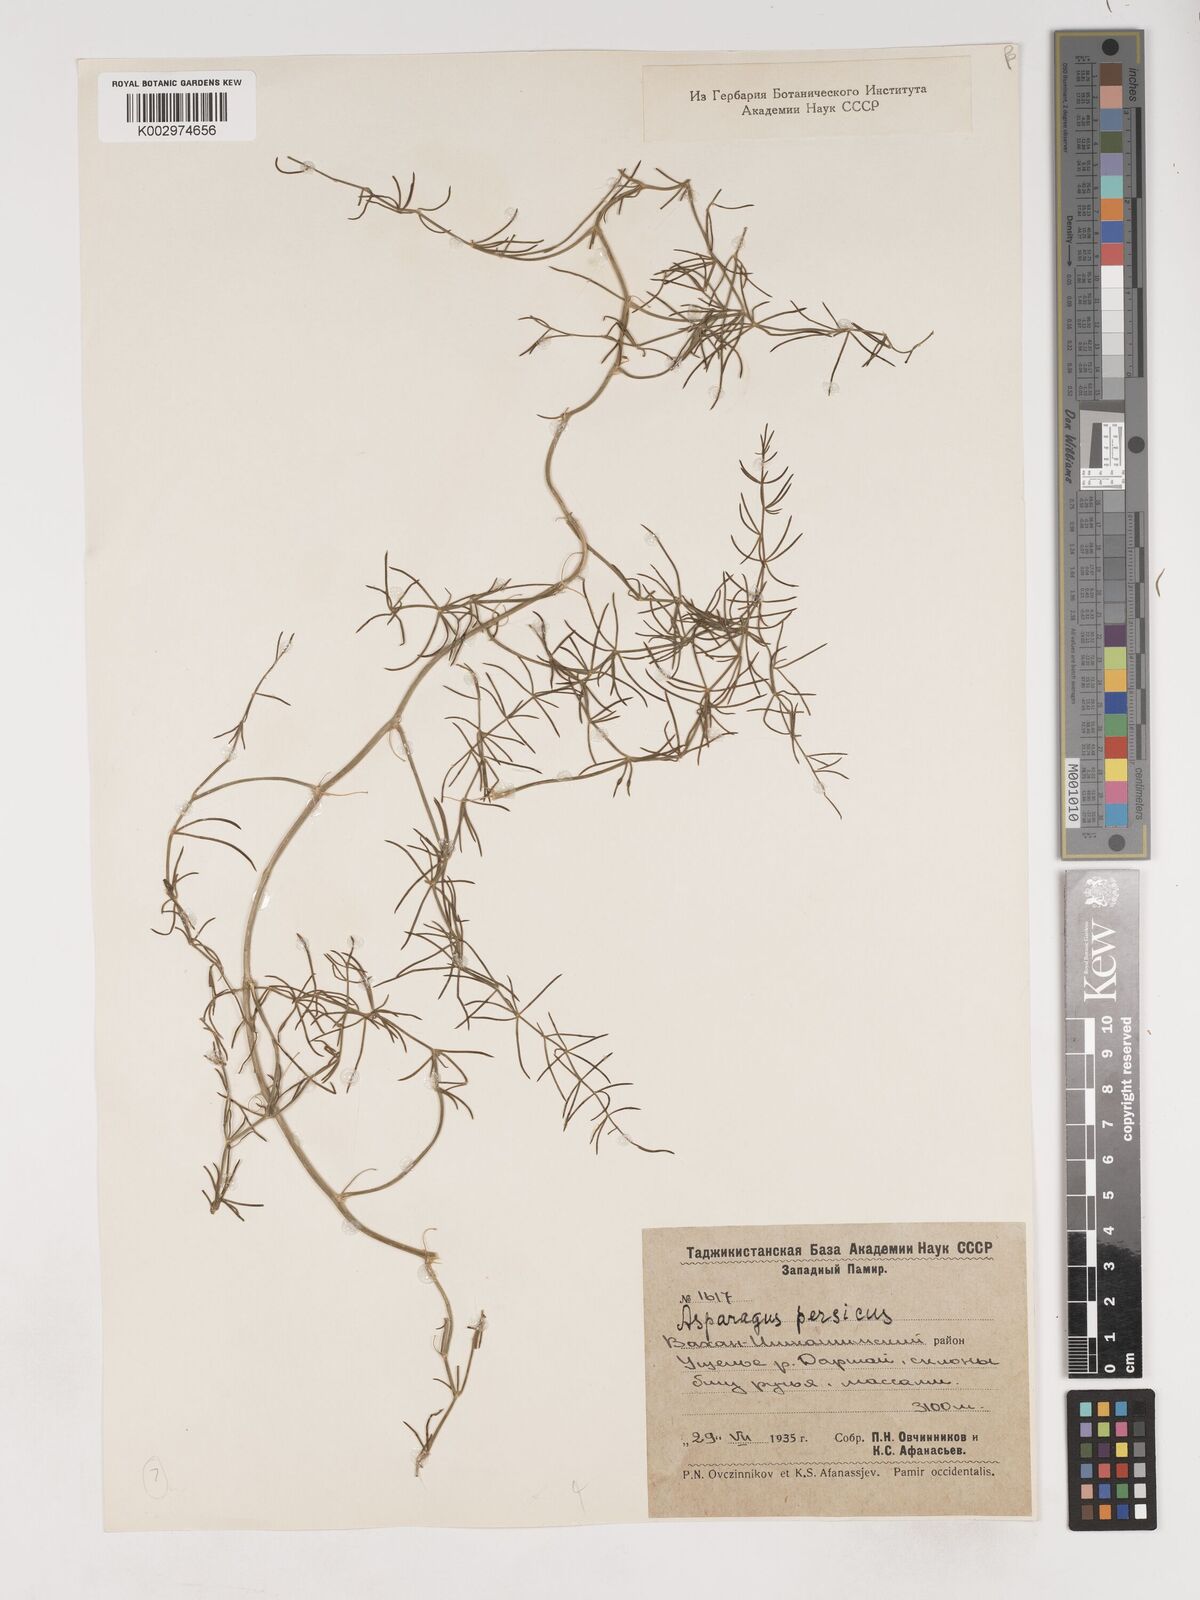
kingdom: Plantae
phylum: Tracheophyta
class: Liliopsida
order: Asparagales
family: Asparagaceae
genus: Asparagus
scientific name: Asparagus persicus
